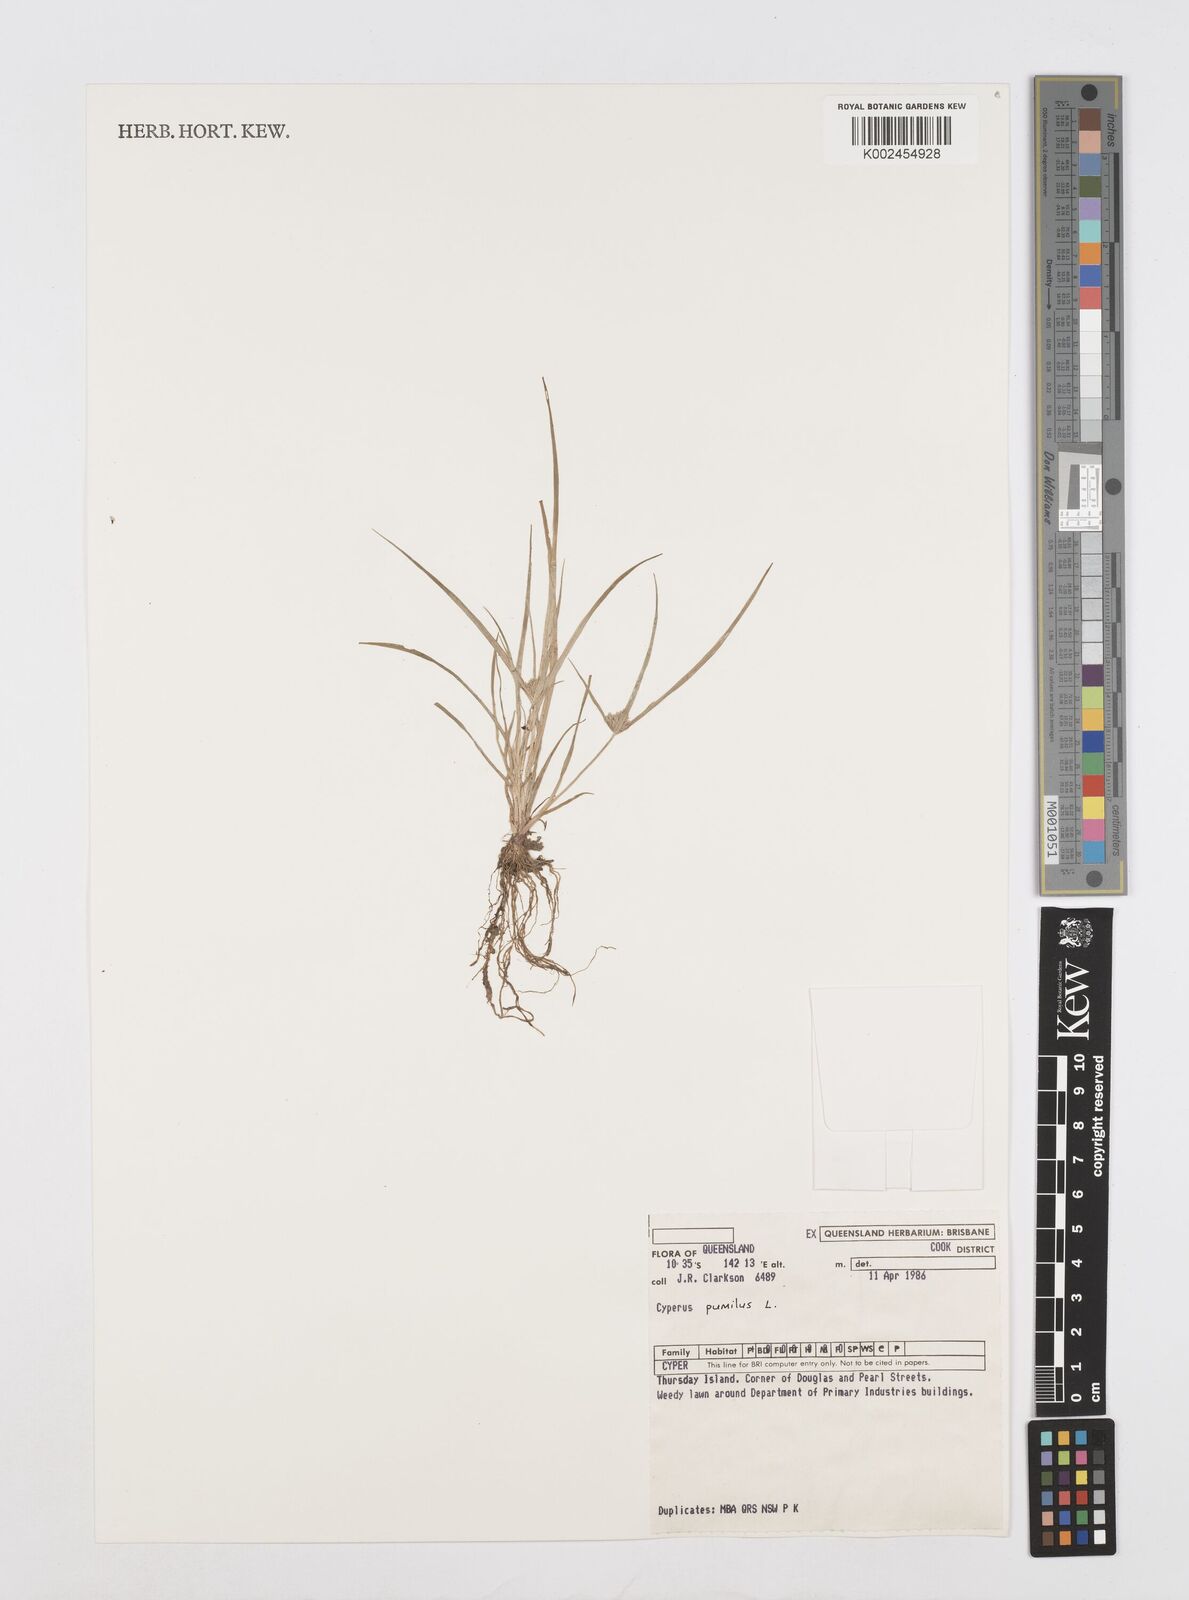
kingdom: Plantae
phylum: Tracheophyta
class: Liliopsida
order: Poales
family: Cyperaceae
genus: Cyperus
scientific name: Cyperus pumilus
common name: Low flatsedge
